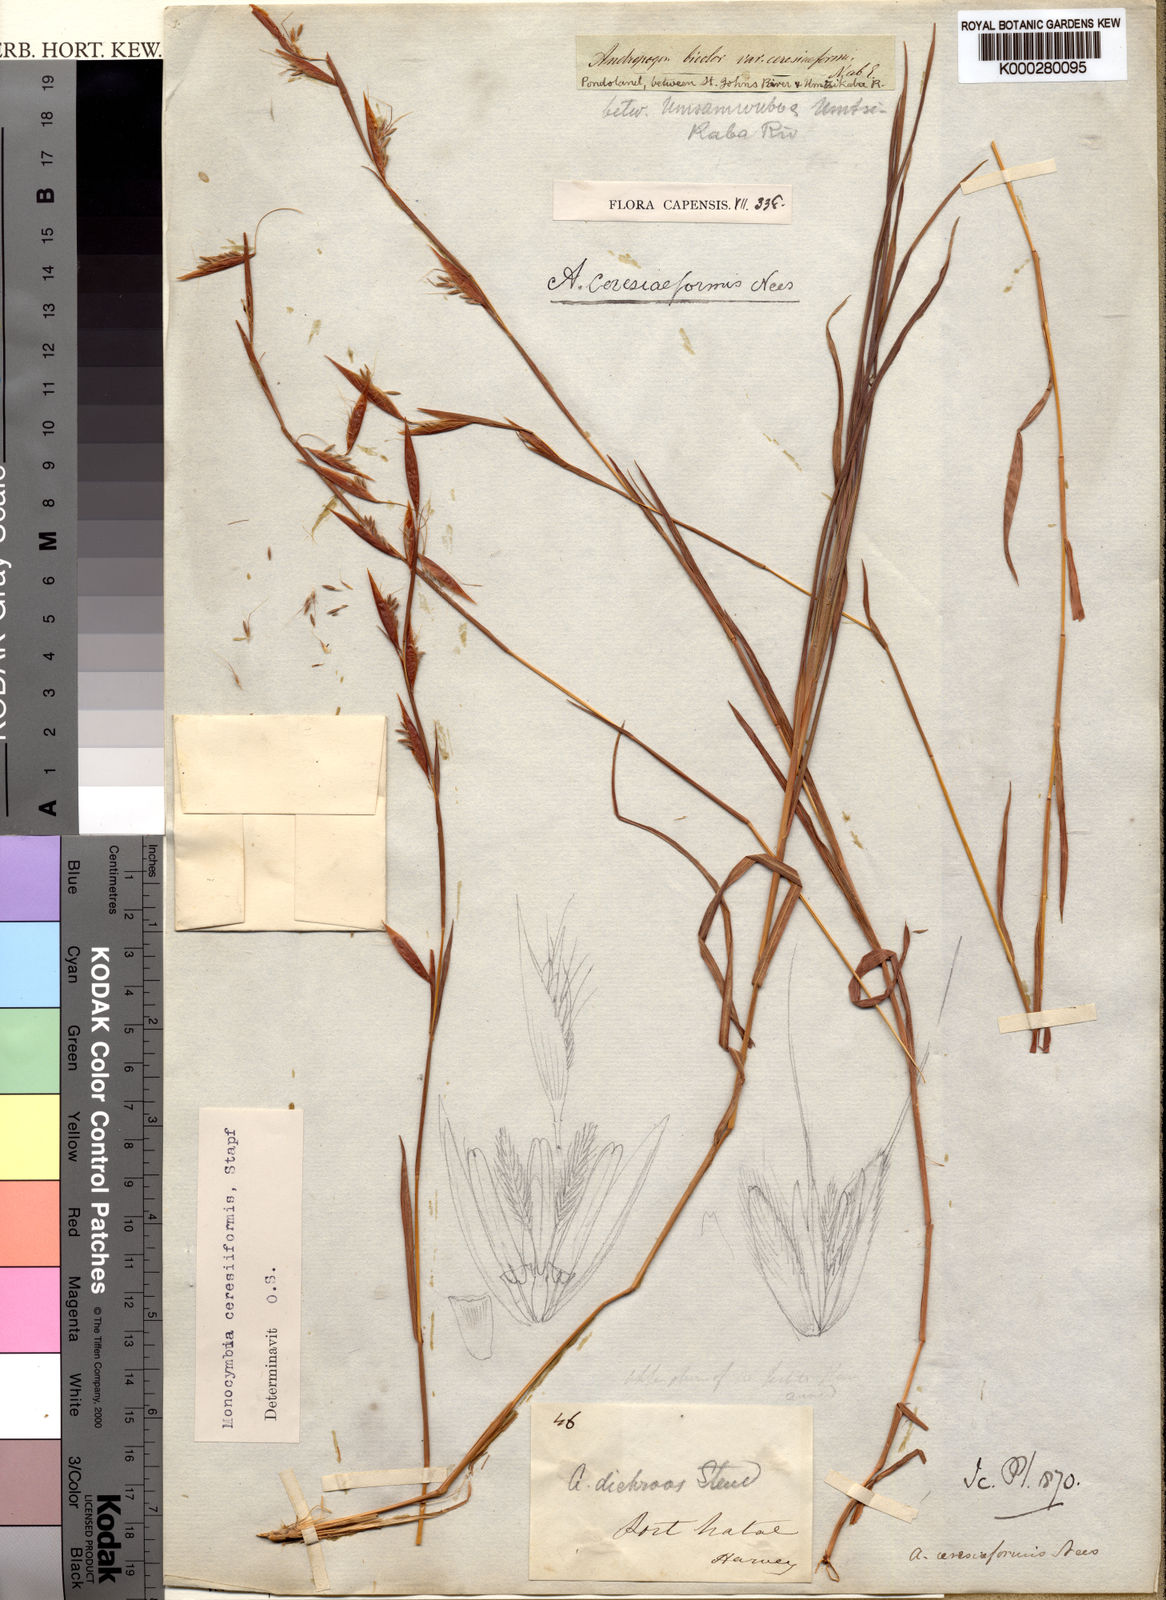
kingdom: Plantae
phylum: Tracheophyta
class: Liliopsida
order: Poales
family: Poaceae
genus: Monocymbium
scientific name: Monocymbium ceresiiforme
